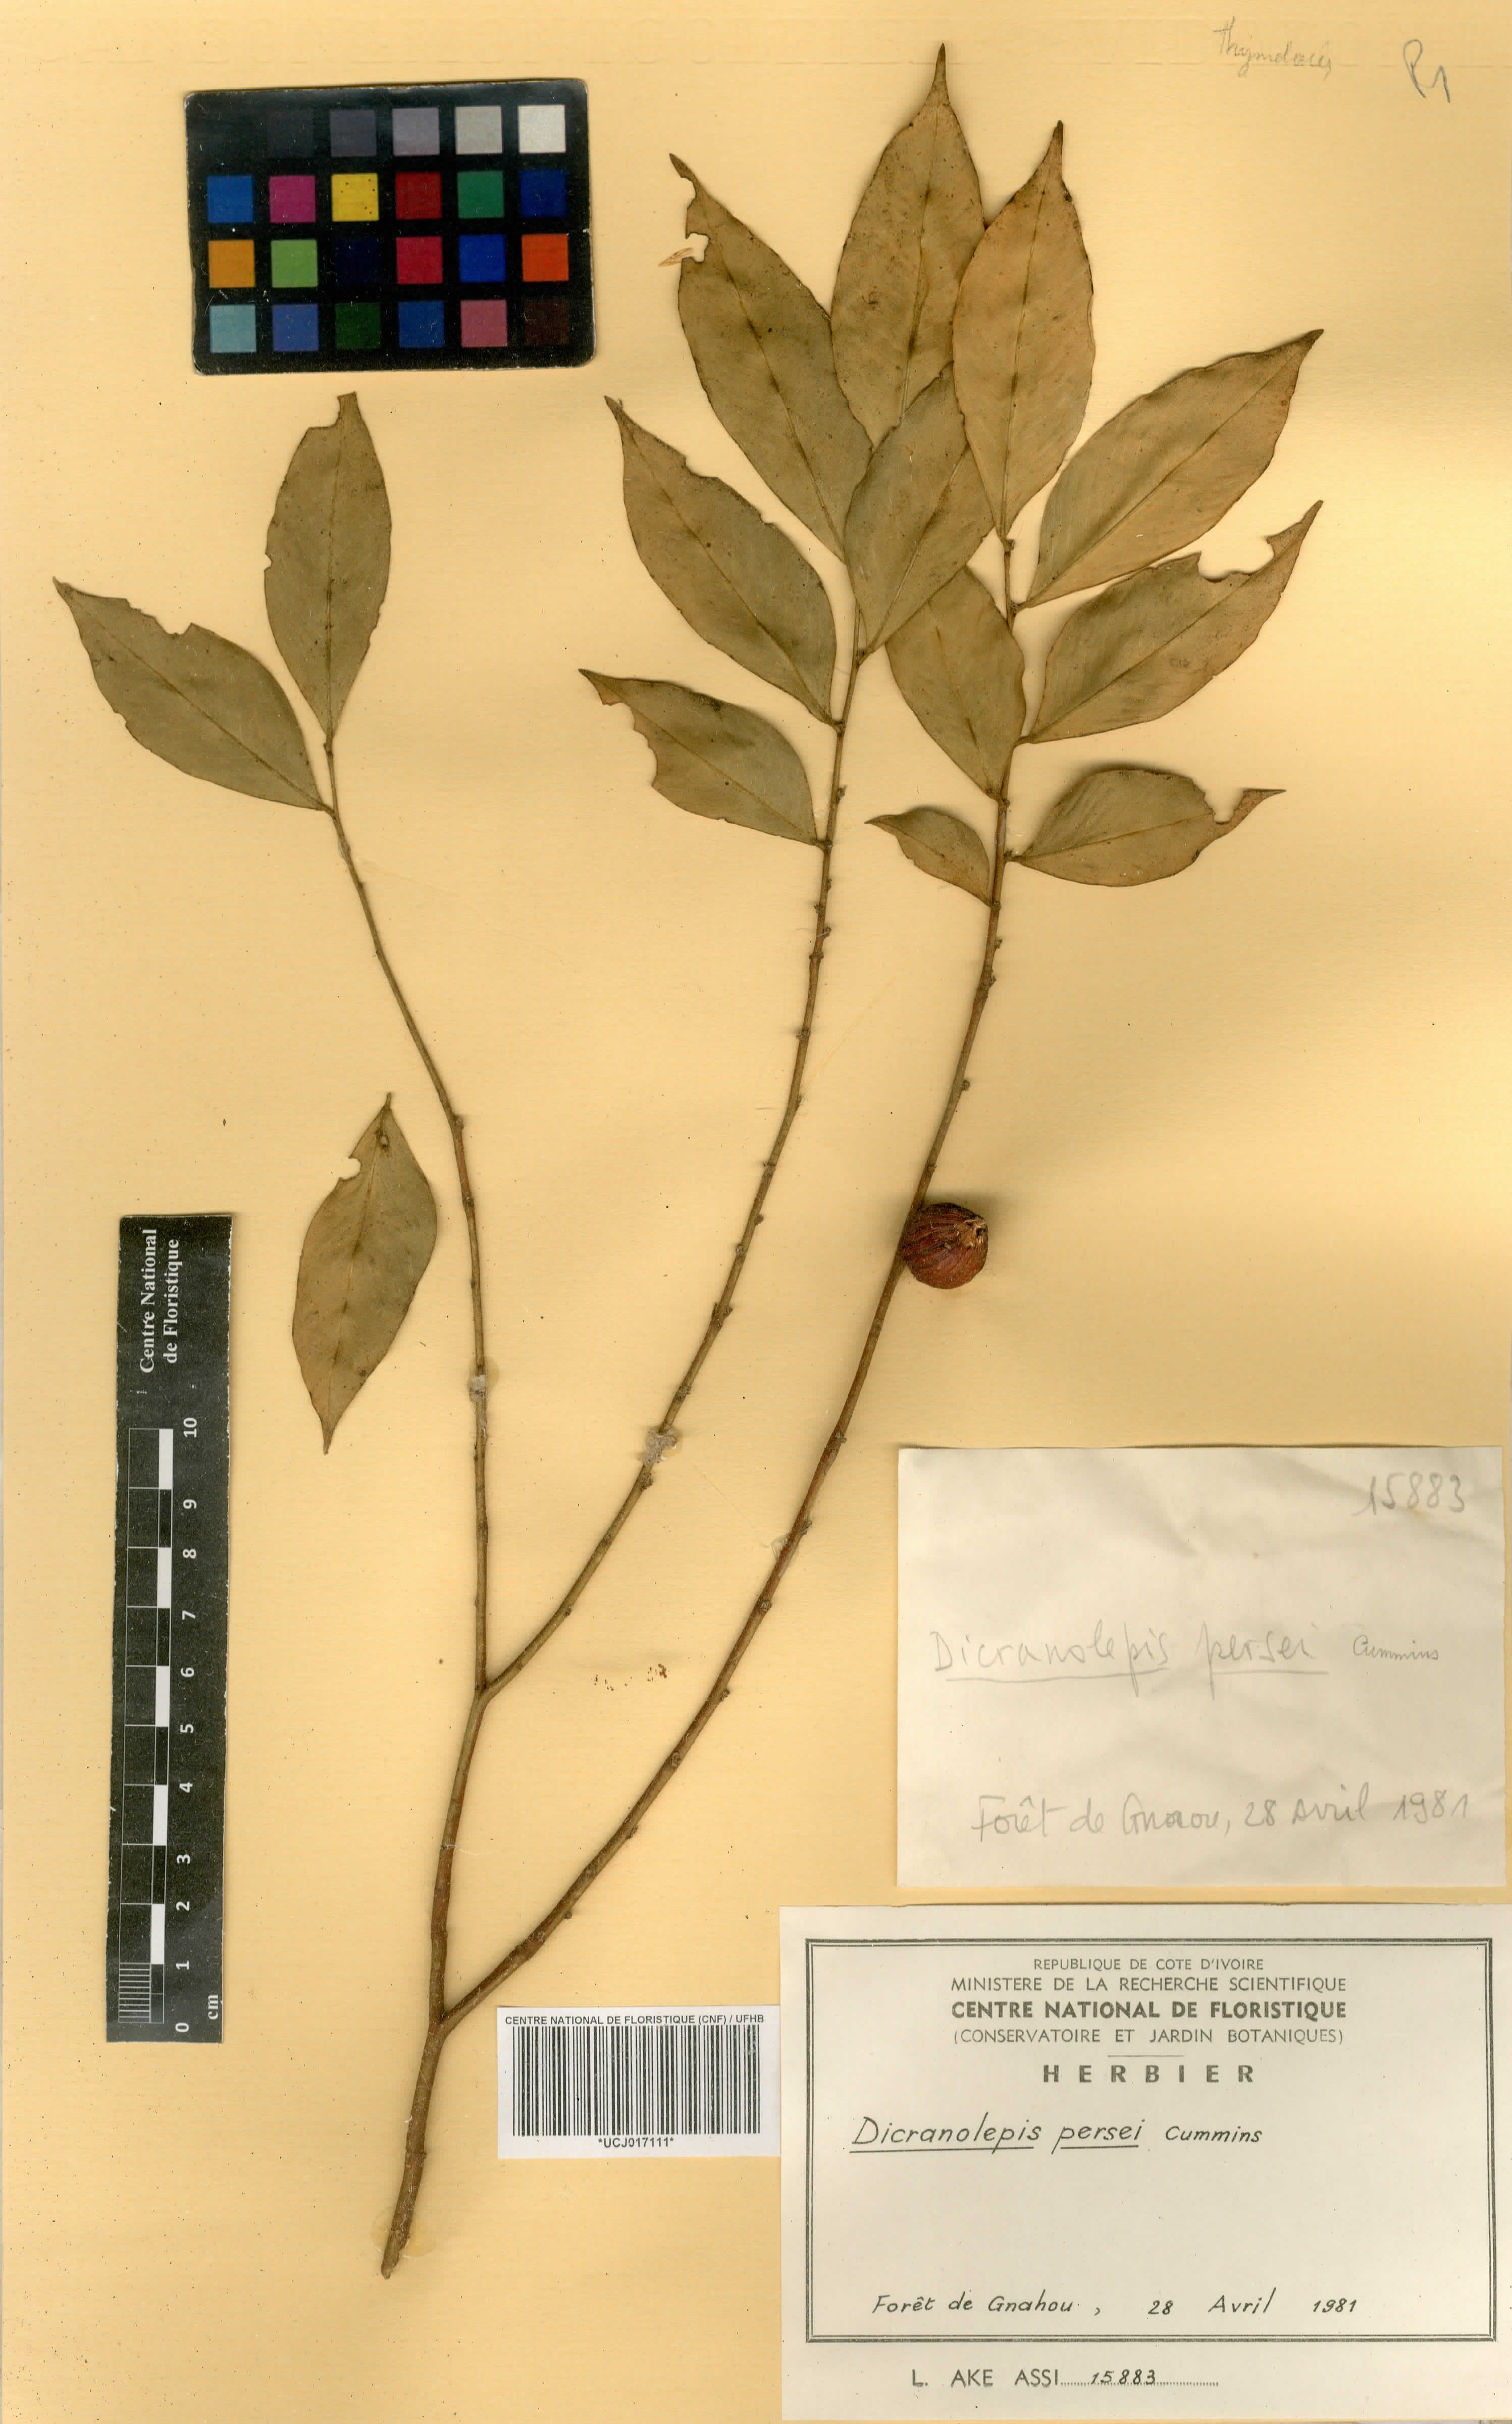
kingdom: Plantae
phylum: Tracheophyta
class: Magnoliopsida
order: Malvales
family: Thymelaeaceae
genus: Dicranolepis
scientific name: Dicranolepis persei
